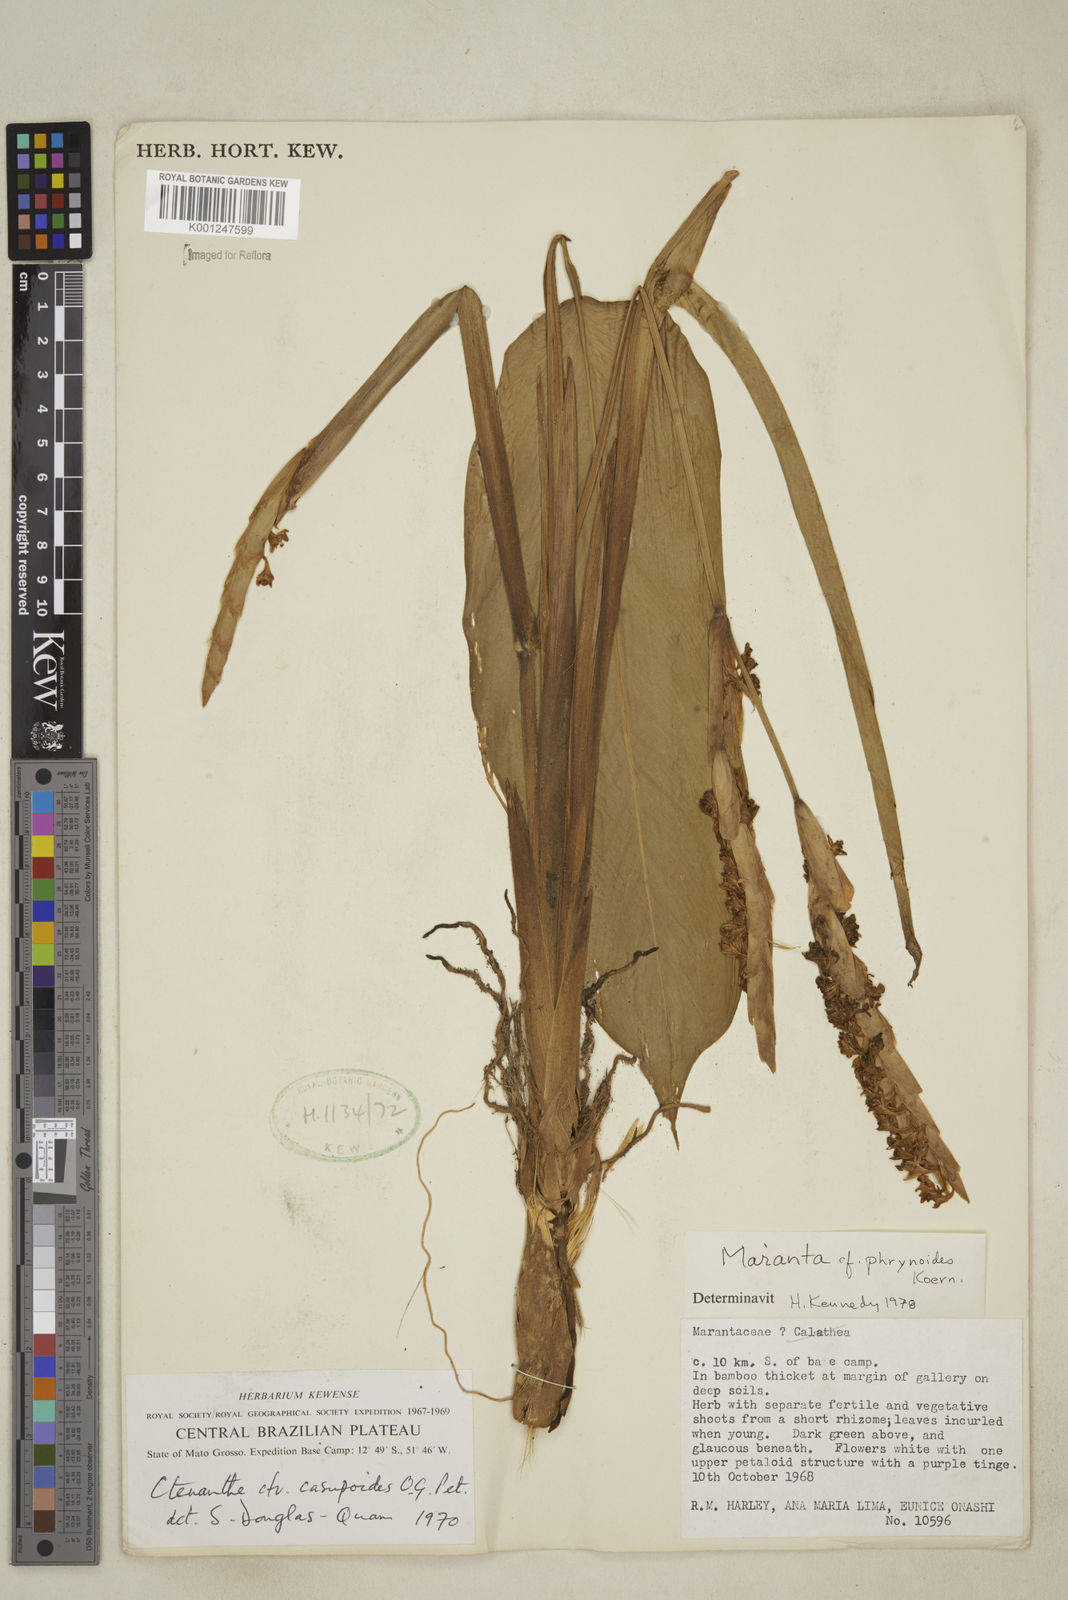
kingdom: Plantae
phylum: Tracheophyta
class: Liliopsida
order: Zingiberales
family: Marantaceae
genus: Maranta
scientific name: Maranta phrynioides
